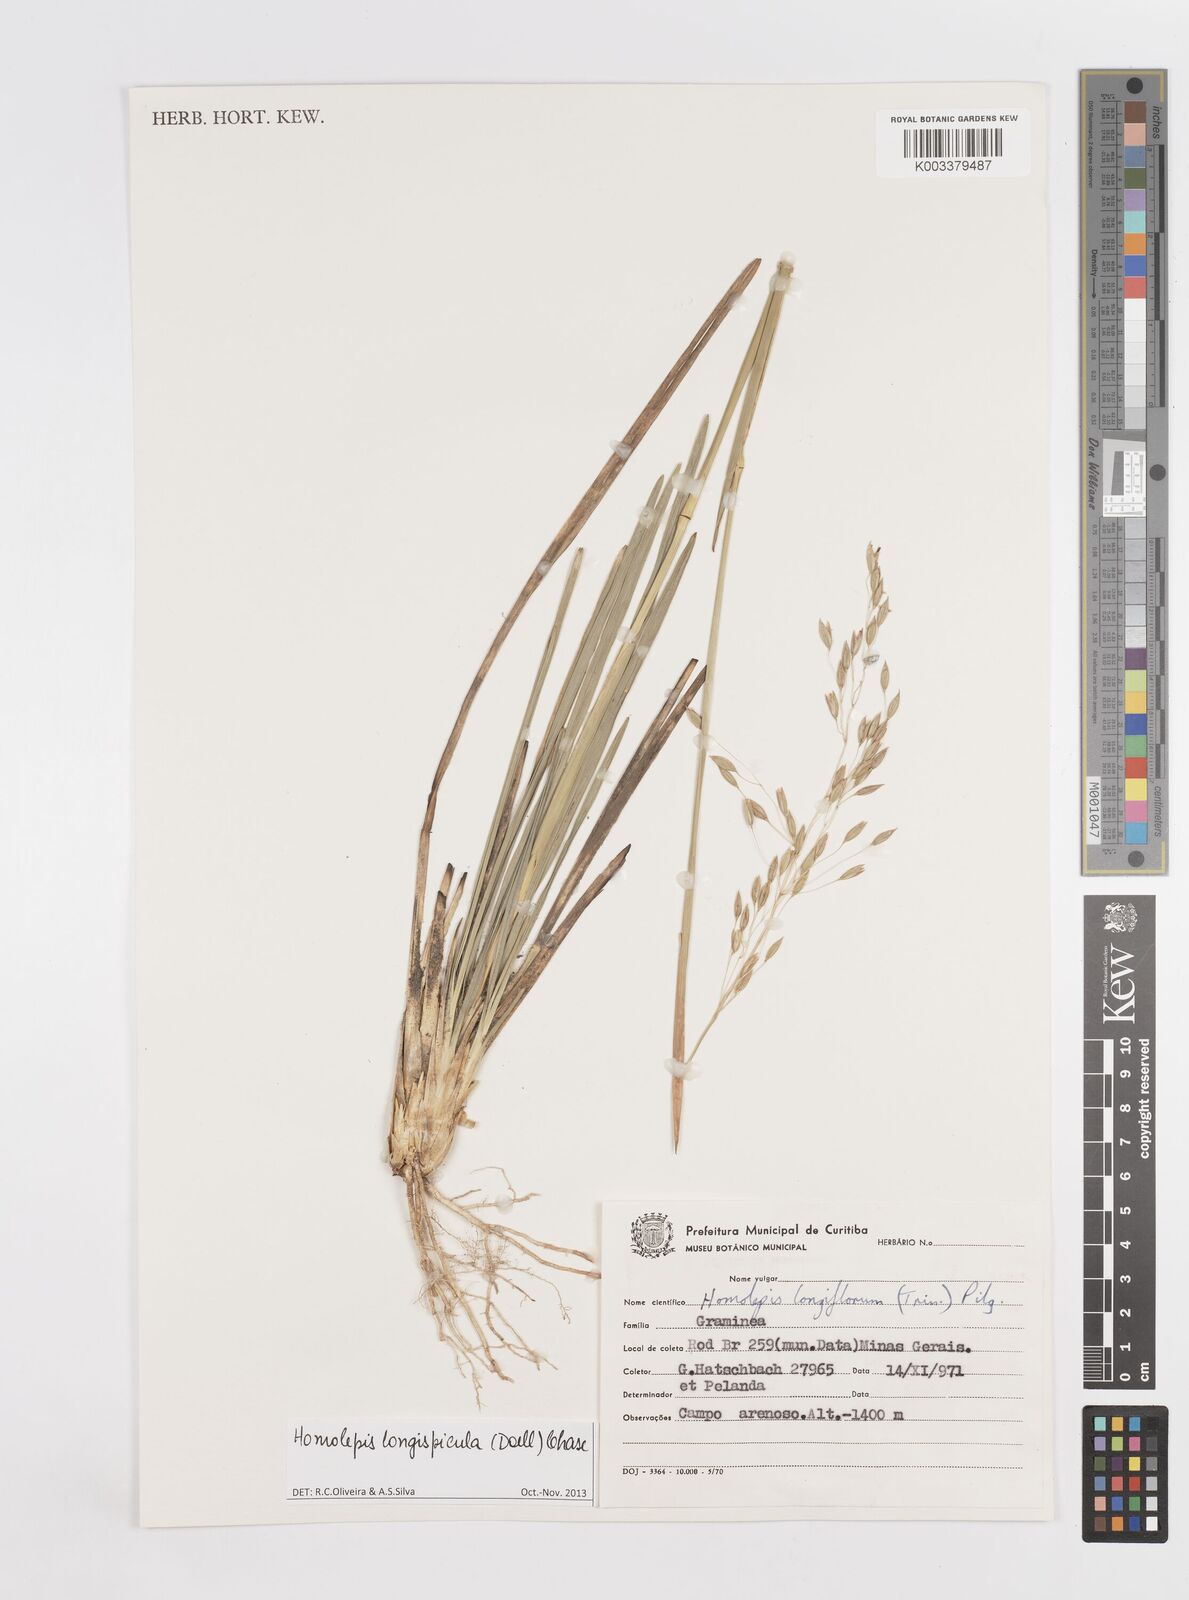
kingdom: Plantae
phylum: Tracheophyta
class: Liliopsida
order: Poales
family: Poaceae
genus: Homolepis
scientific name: Homolepis longispicula
